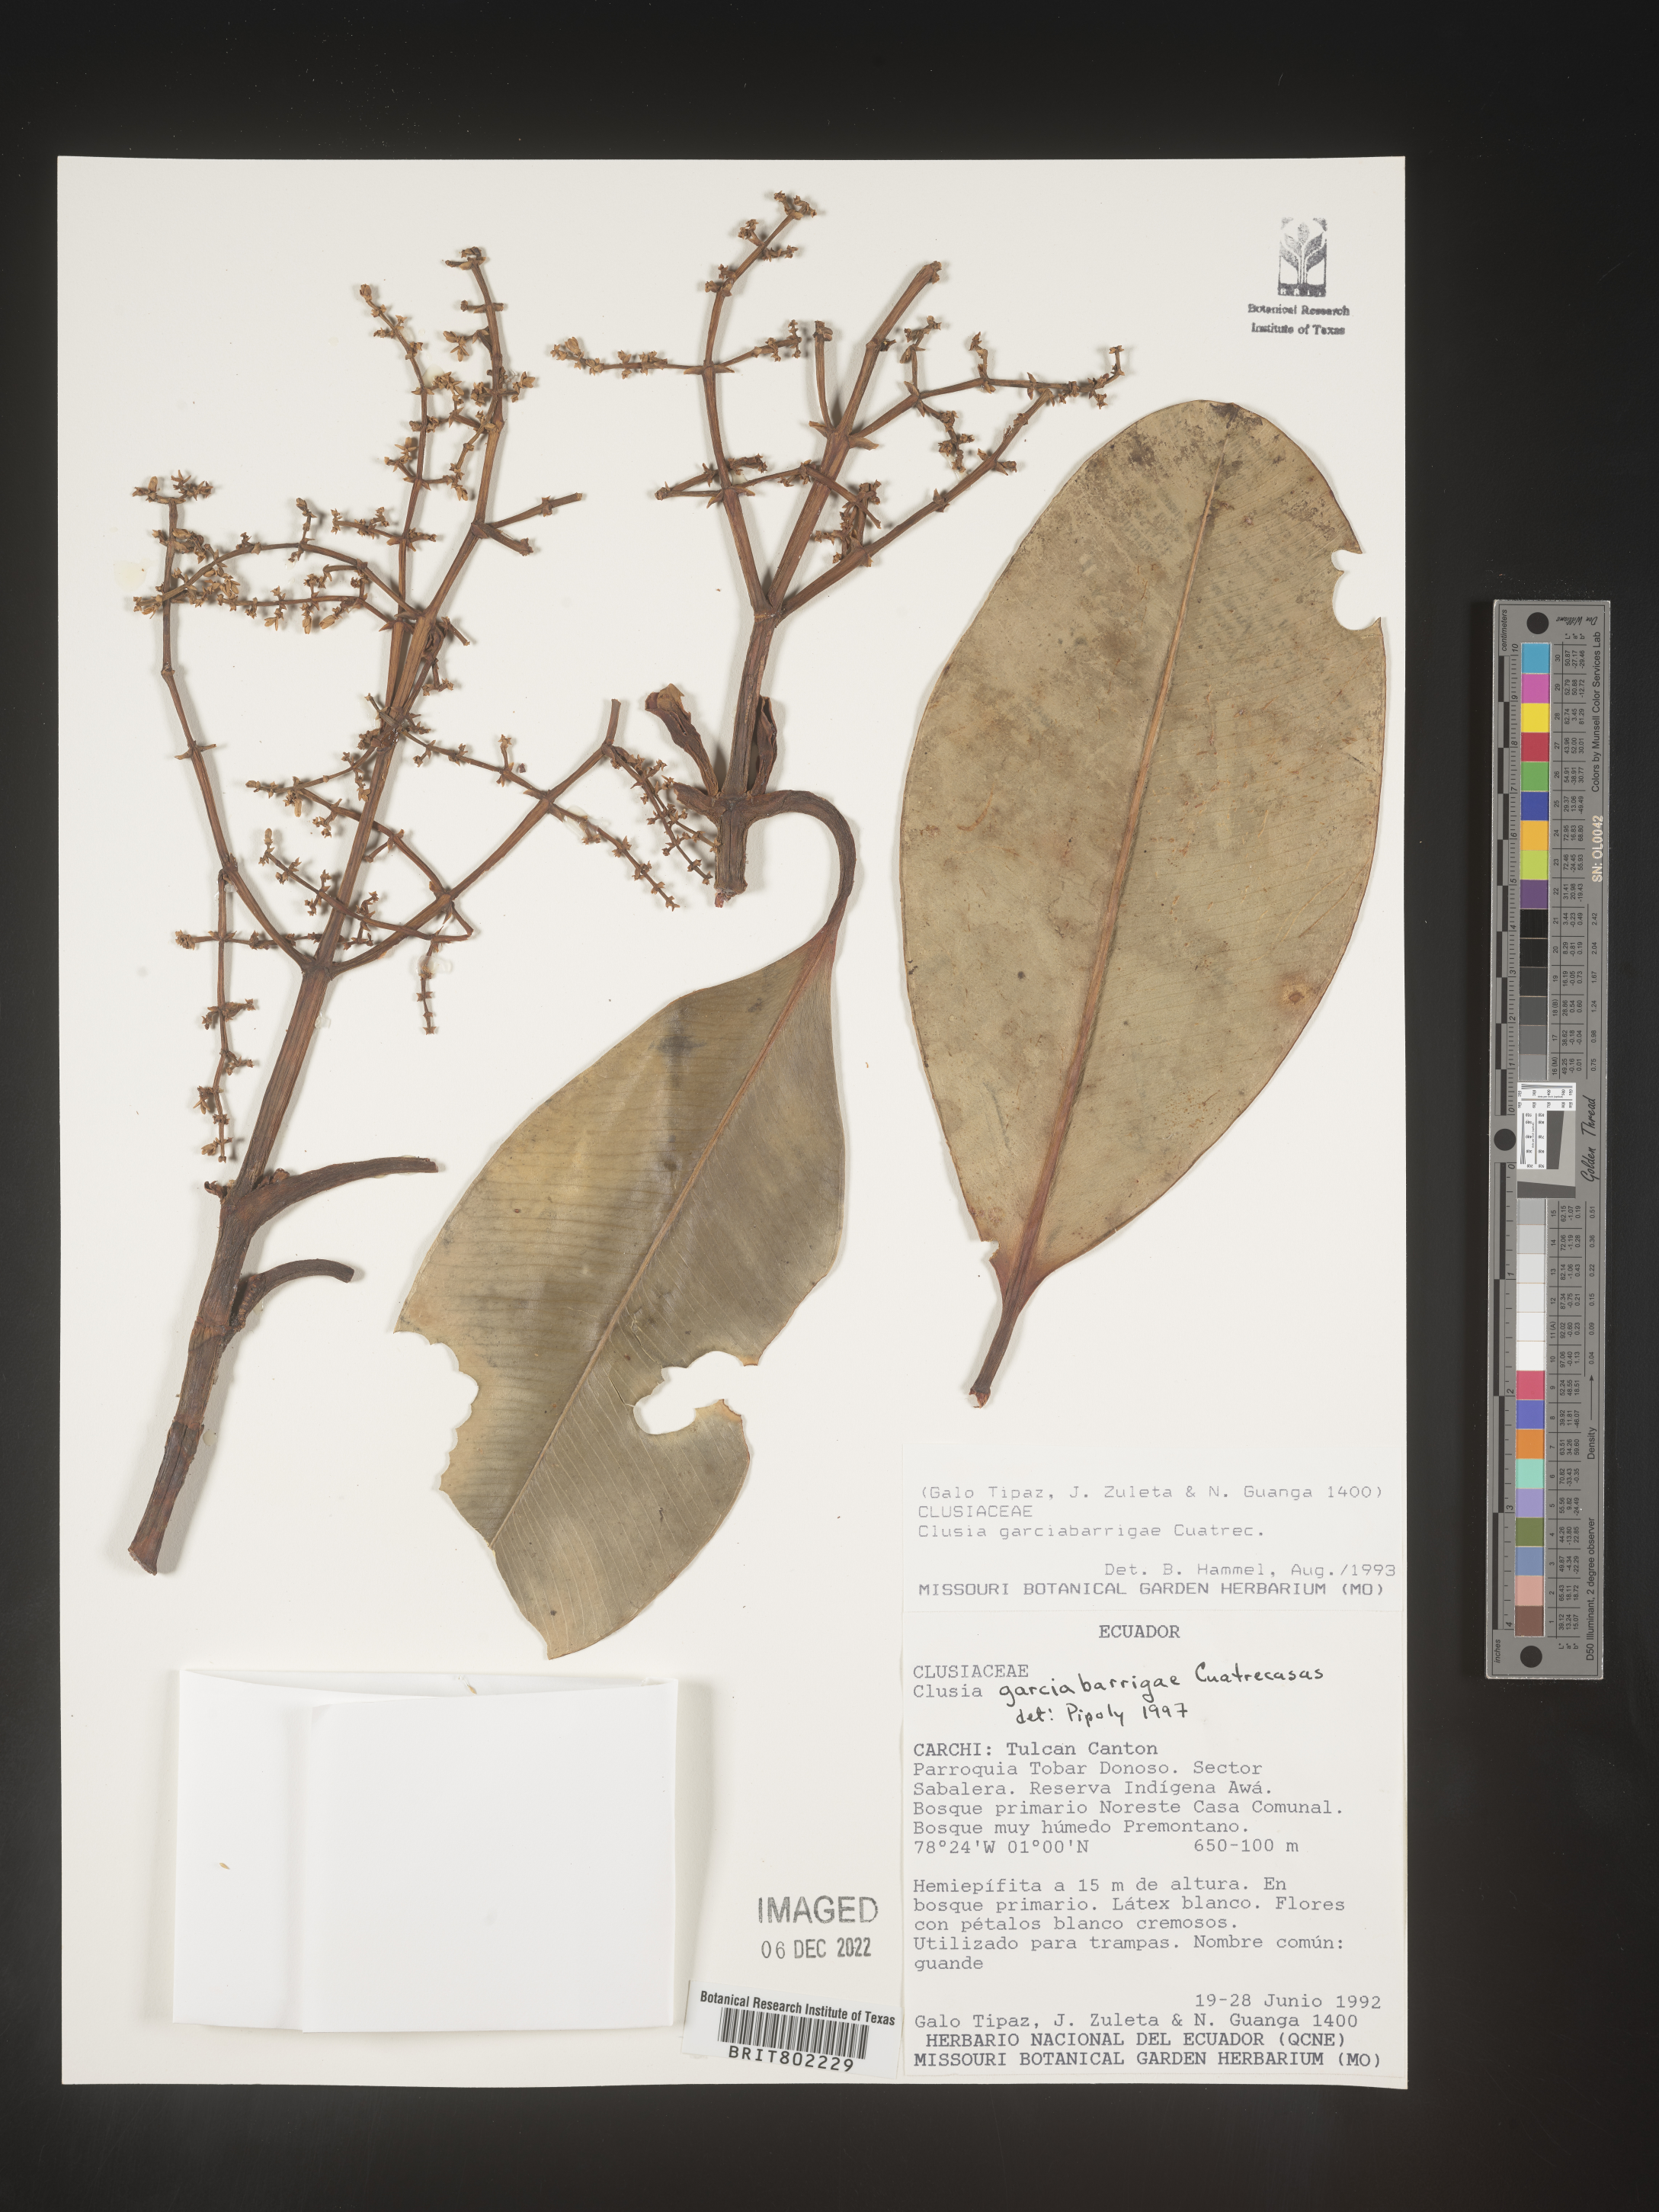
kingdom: Plantae
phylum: Tracheophyta
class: Magnoliopsida
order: Malpighiales
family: Clusiaceae
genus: Clusia
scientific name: Clusia garcibarrigae
